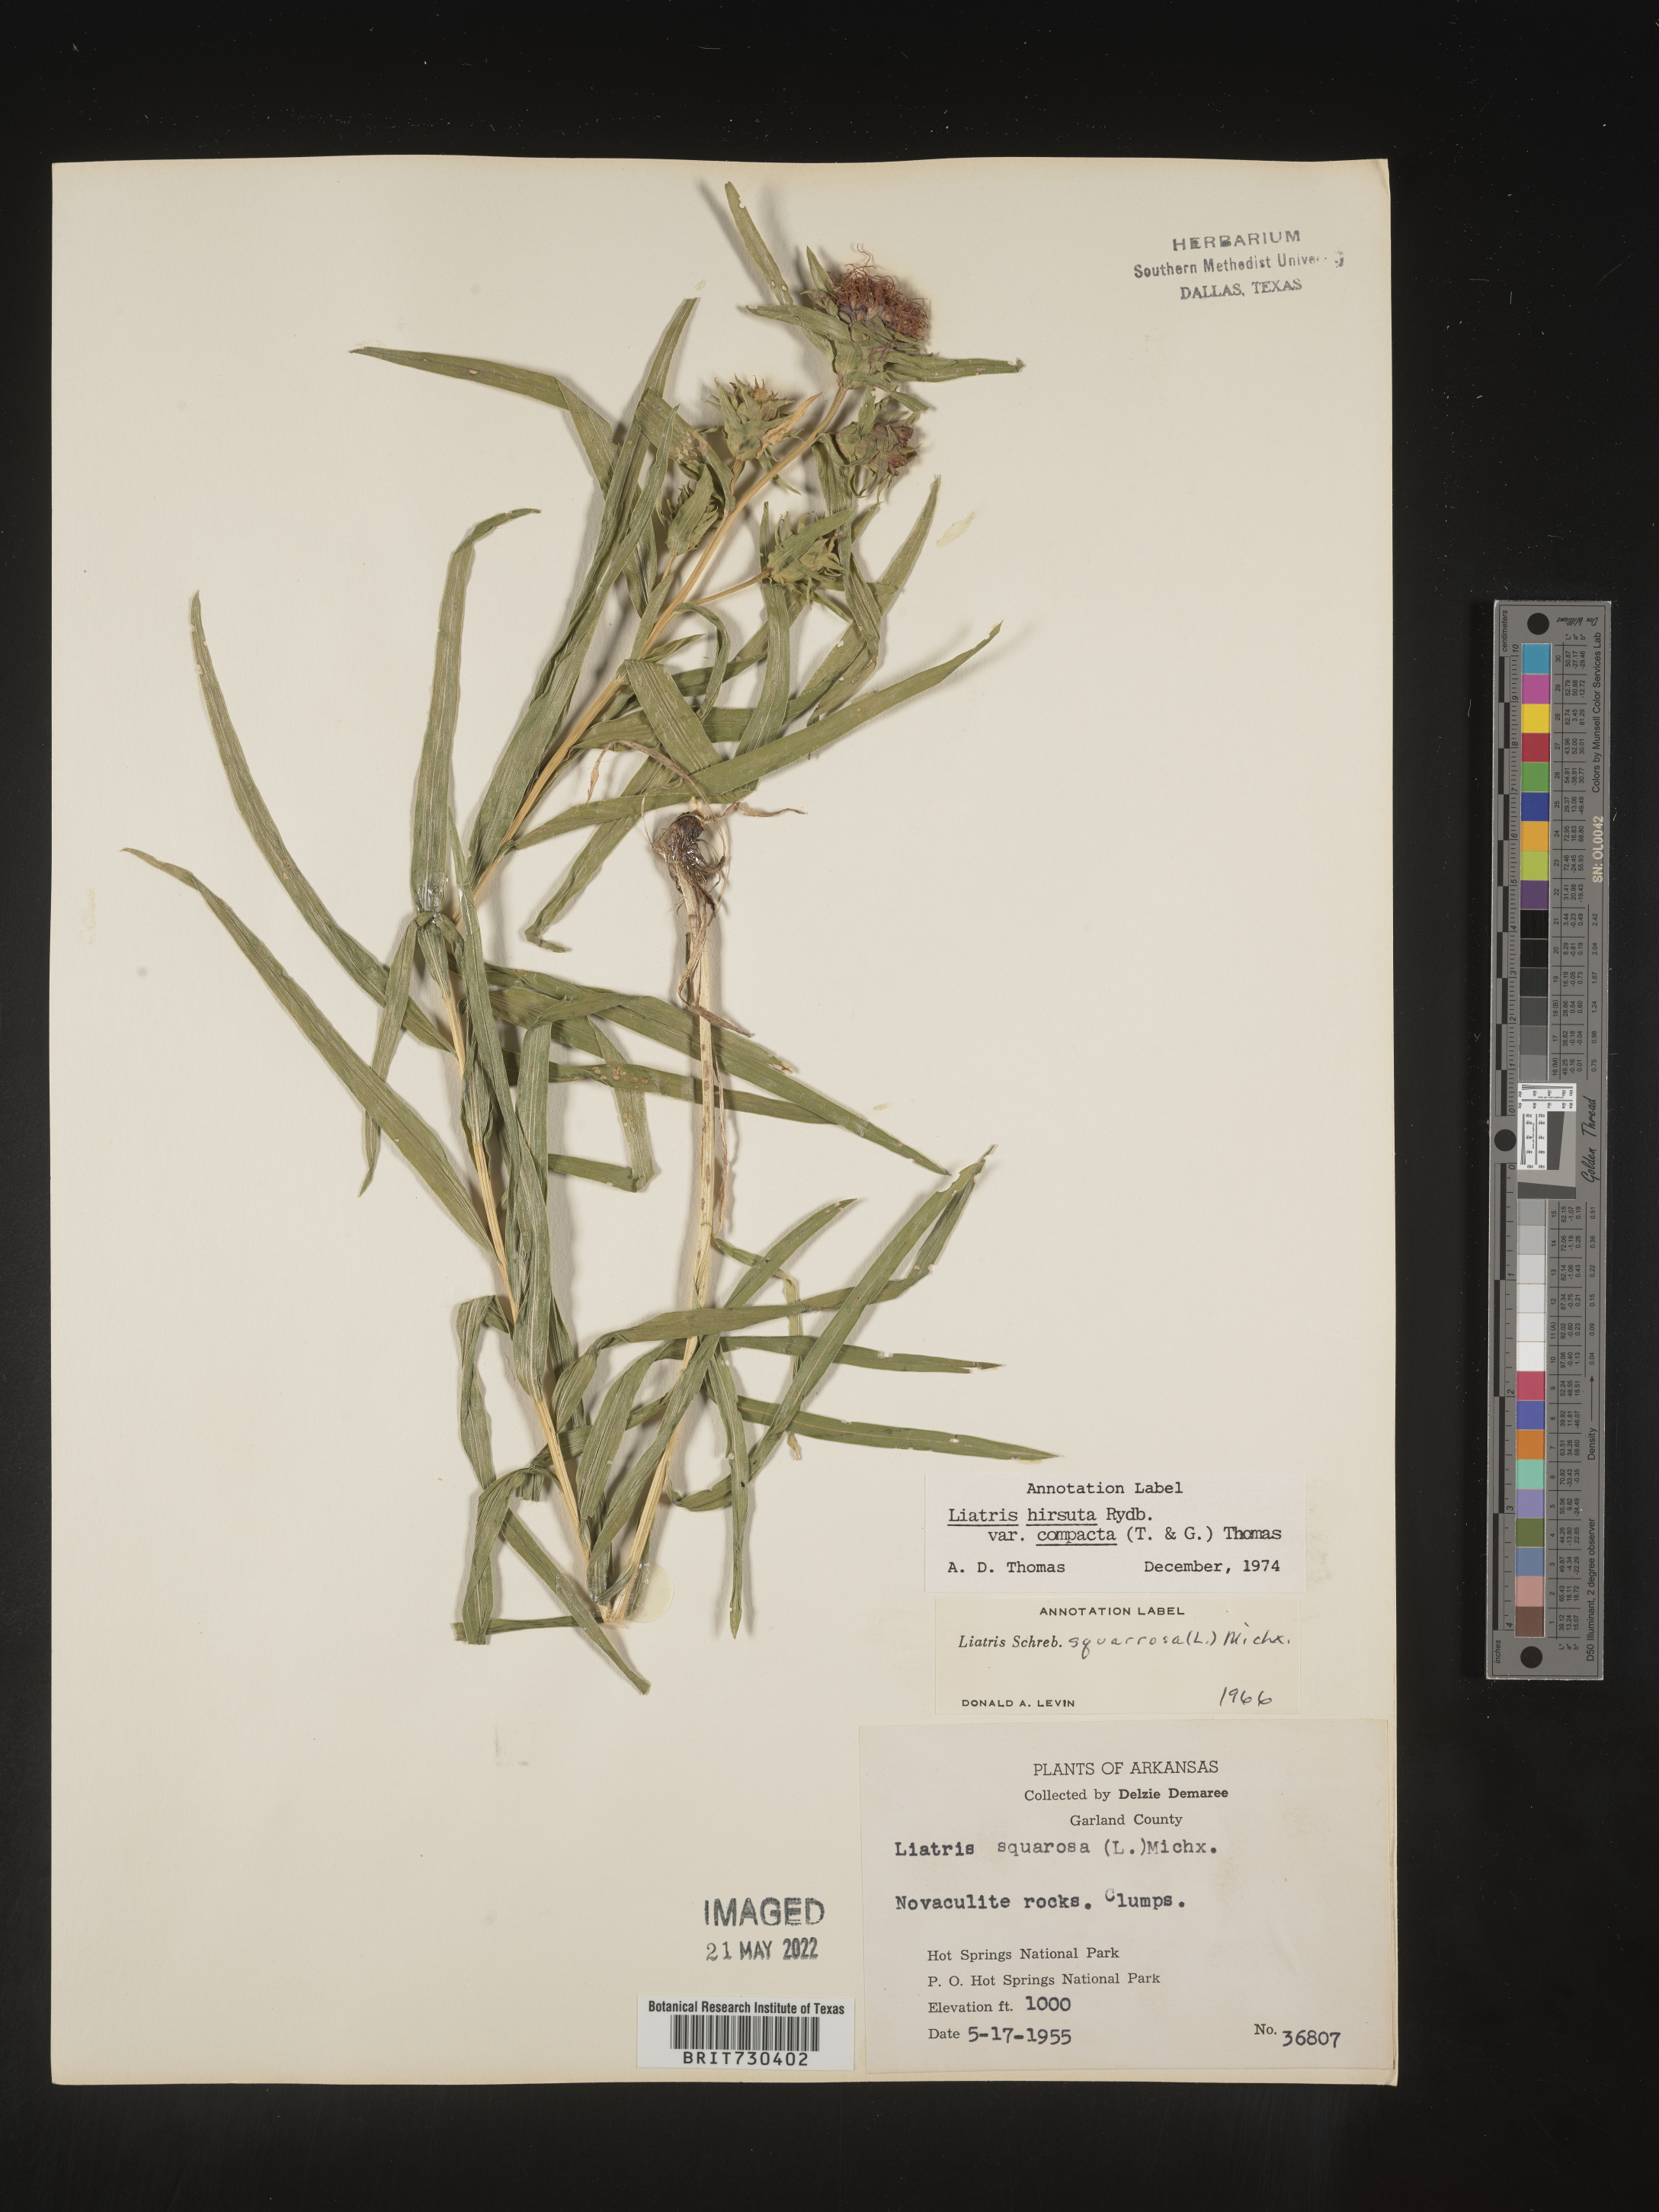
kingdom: Plantae
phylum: Tracheophyta
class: Magnoliopsida
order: Asterales
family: Asteraceae
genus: Liatris
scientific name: Liatris compacta
